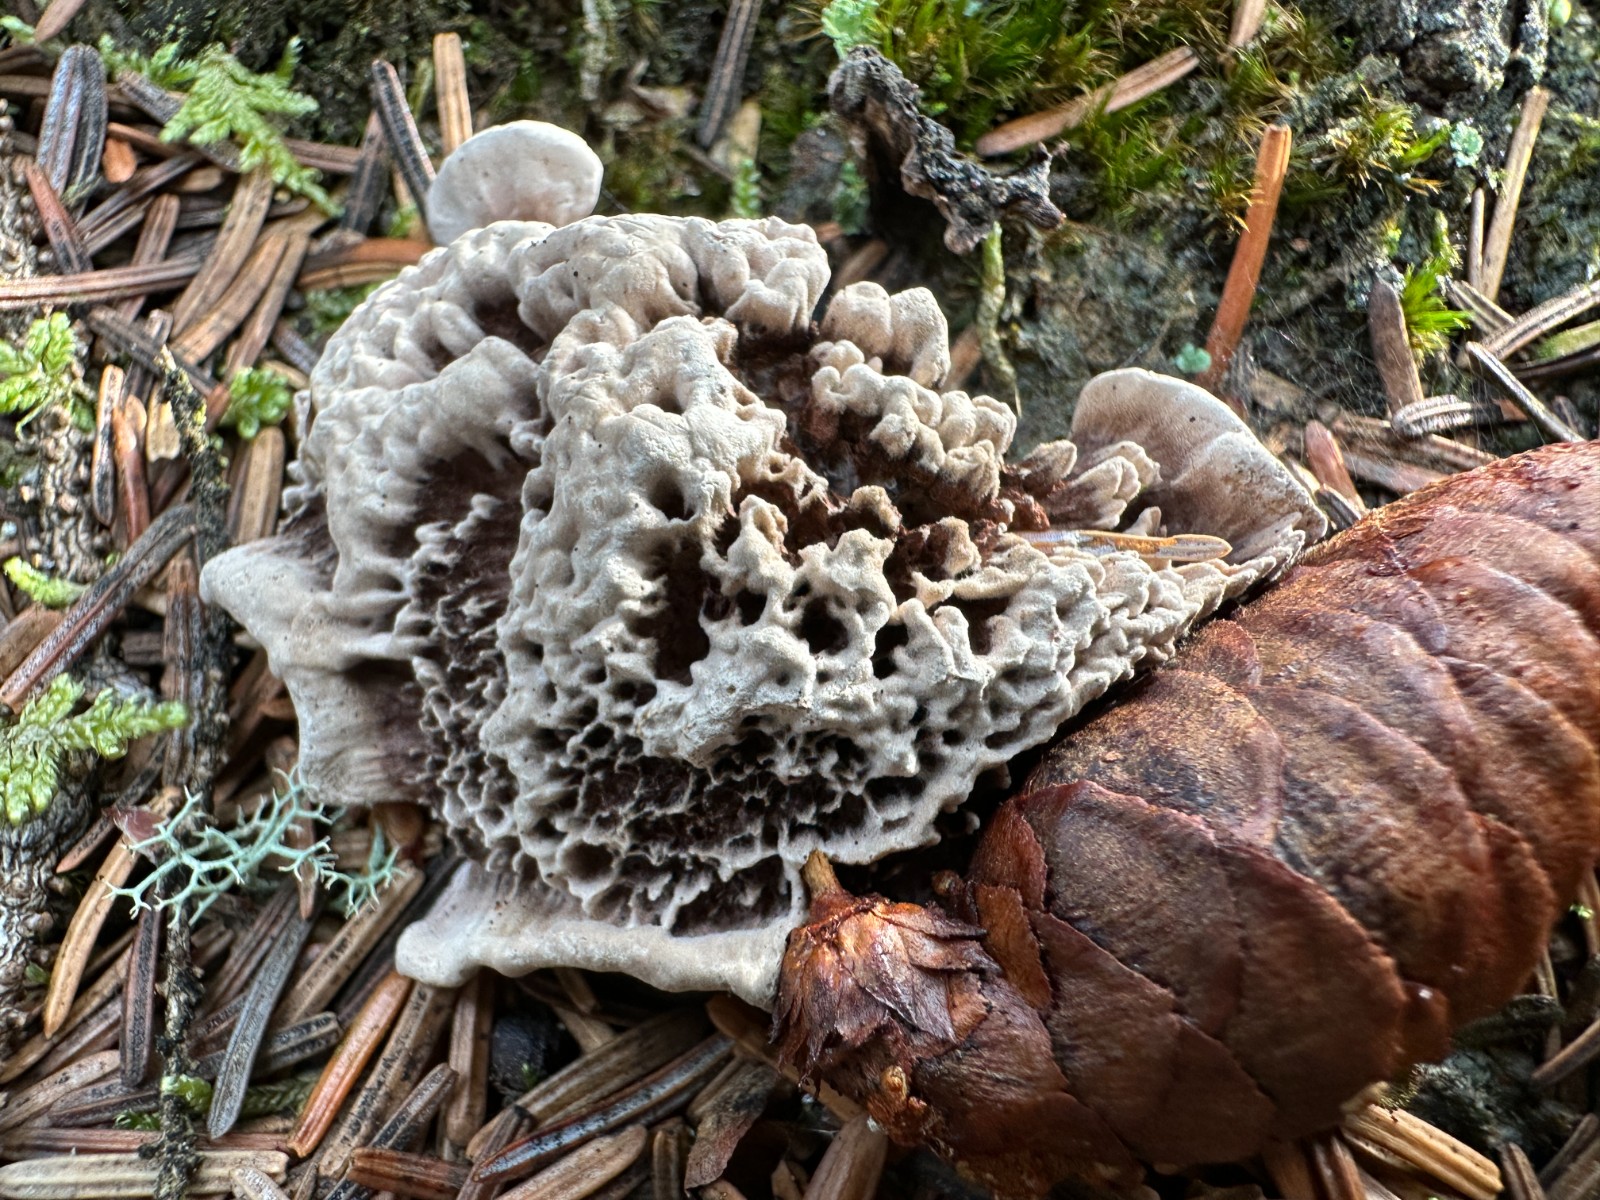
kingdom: Fungi
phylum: Basidiomycota
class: Agaricomycetes
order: Thelephorales
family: Thelephoraceae
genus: Phellodon
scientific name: Phellodon tomentosus
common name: vellugtende duftpigsvamp
